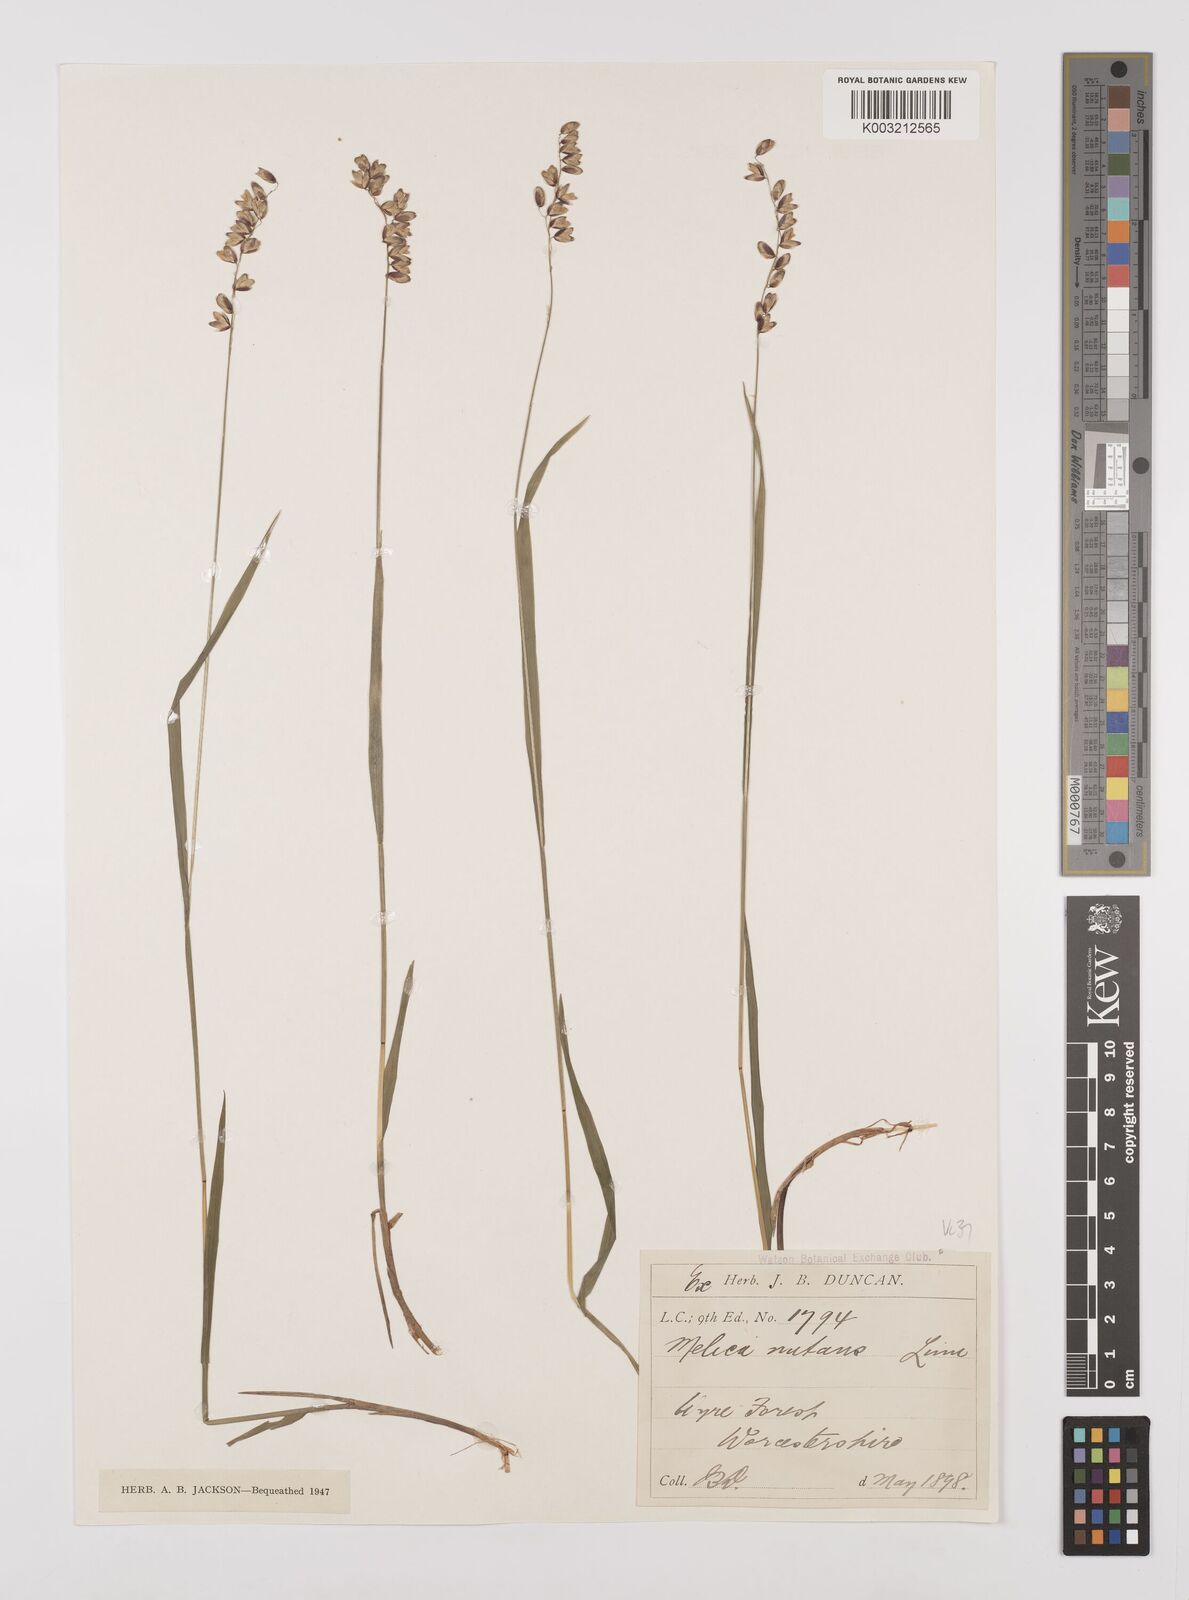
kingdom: Plantae
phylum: Tracheophyta
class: Liliopsida
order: Poales
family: Poaceae
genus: Melica
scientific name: Melica
